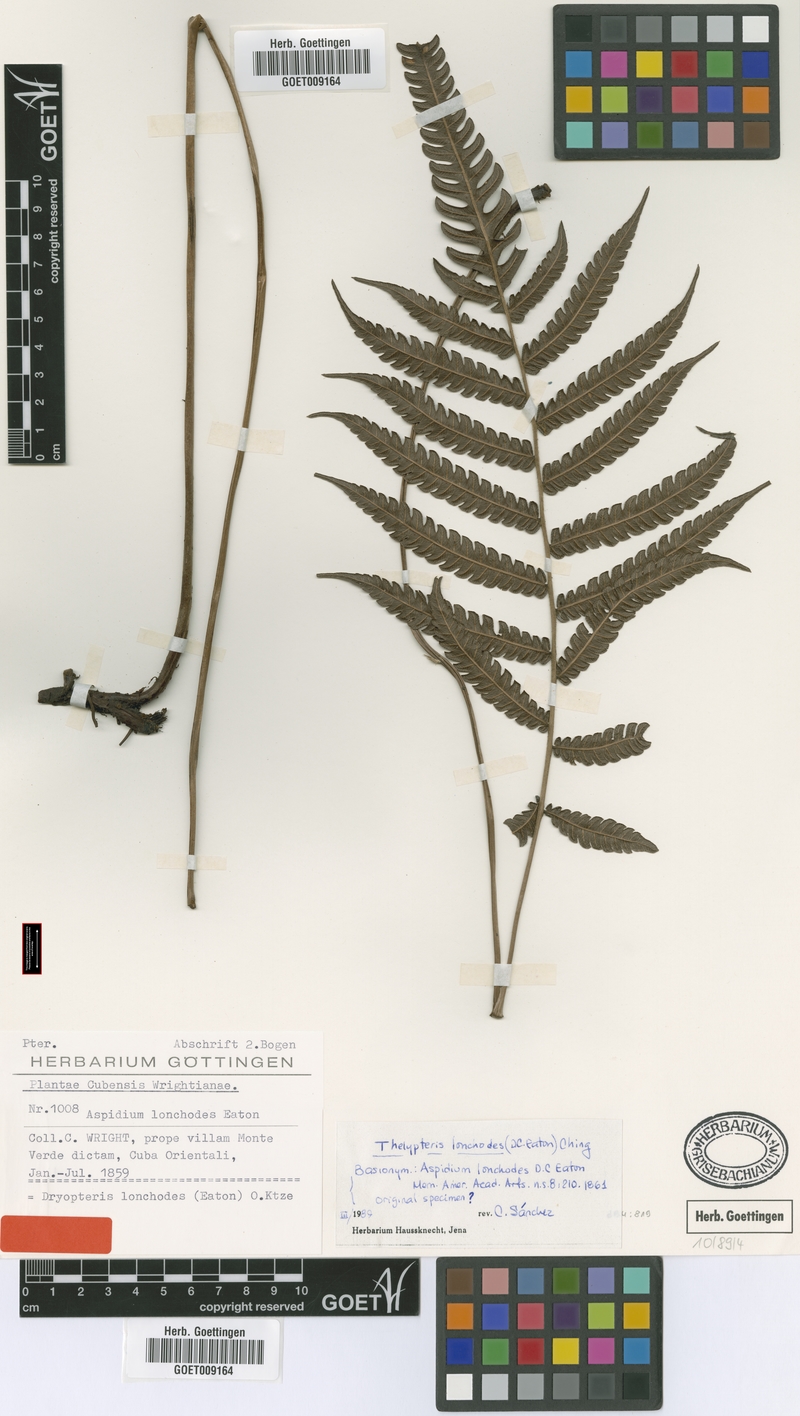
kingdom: Plantae
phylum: Tracheophyta
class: Polypodiopsida
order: Polypodiales
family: Thelypteridaceae
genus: Steiropteris
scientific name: Steiropteris lonchodes
